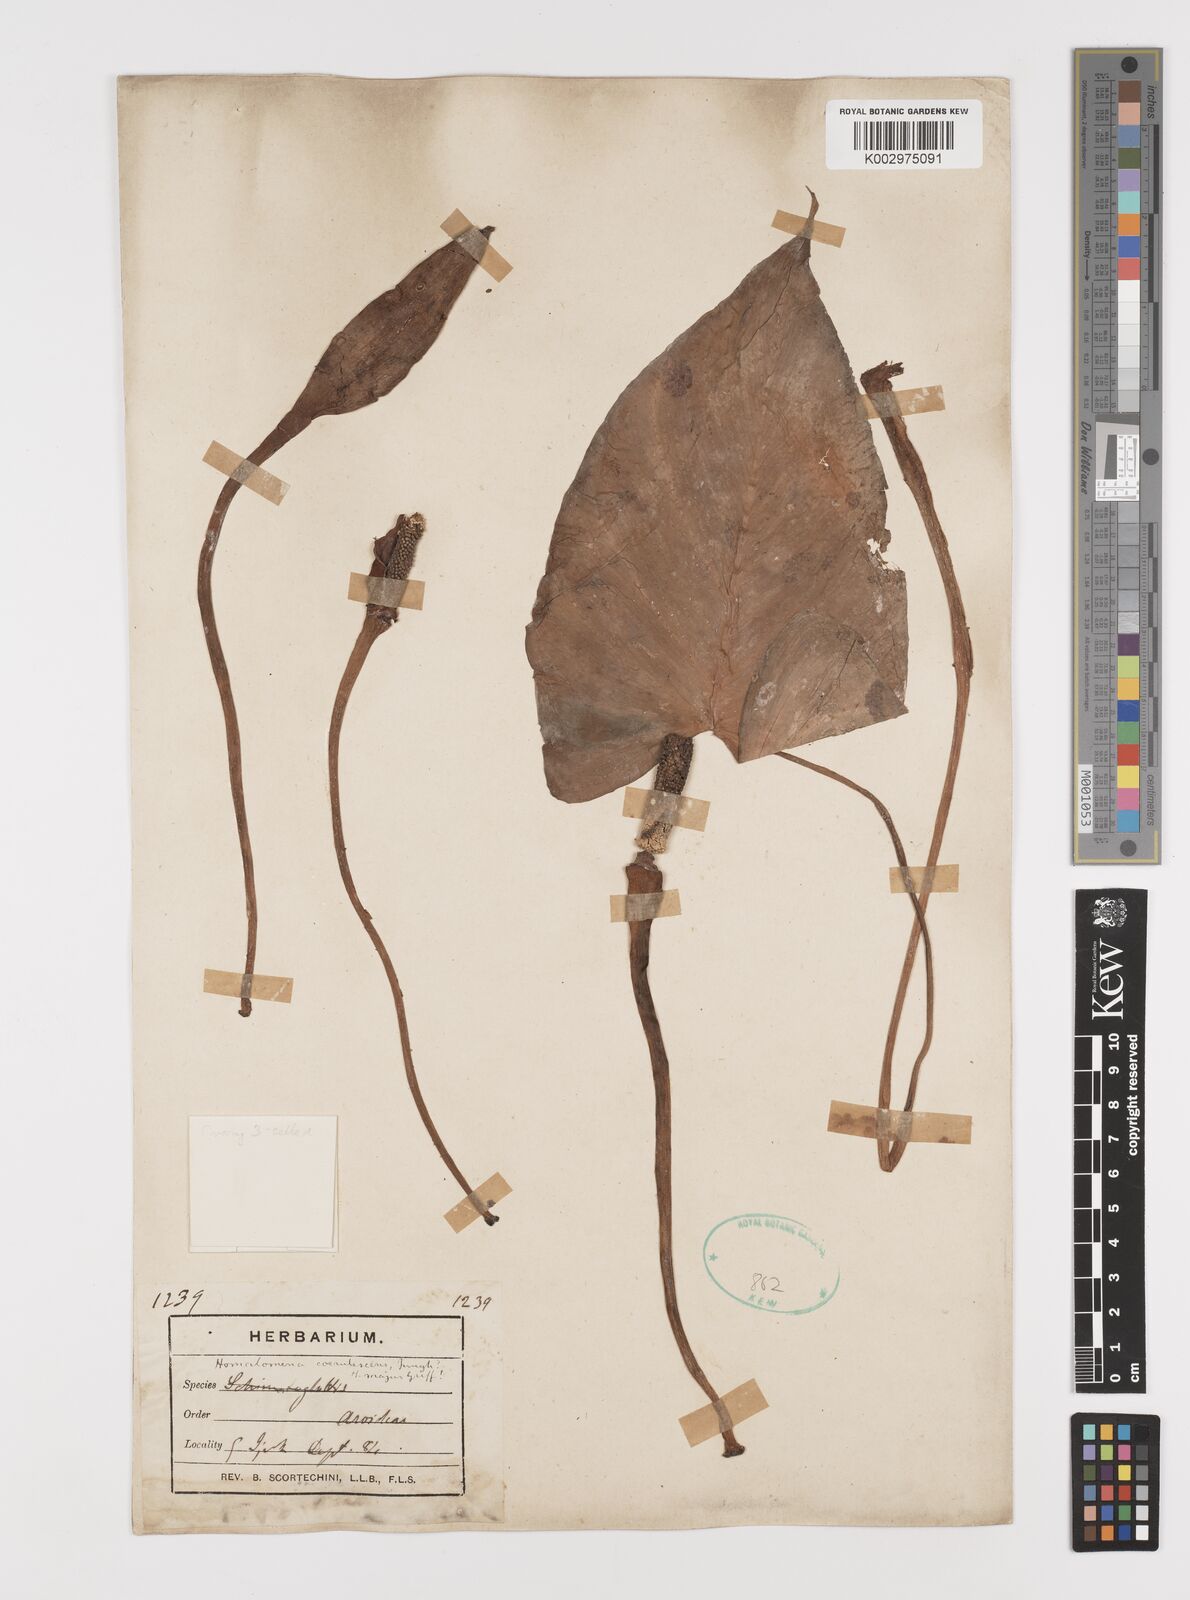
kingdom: Plantae
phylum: Tracheophyta
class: Liliopsida
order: Alismatales
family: Araceae
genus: Homalomena
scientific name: Homalomena pendula
